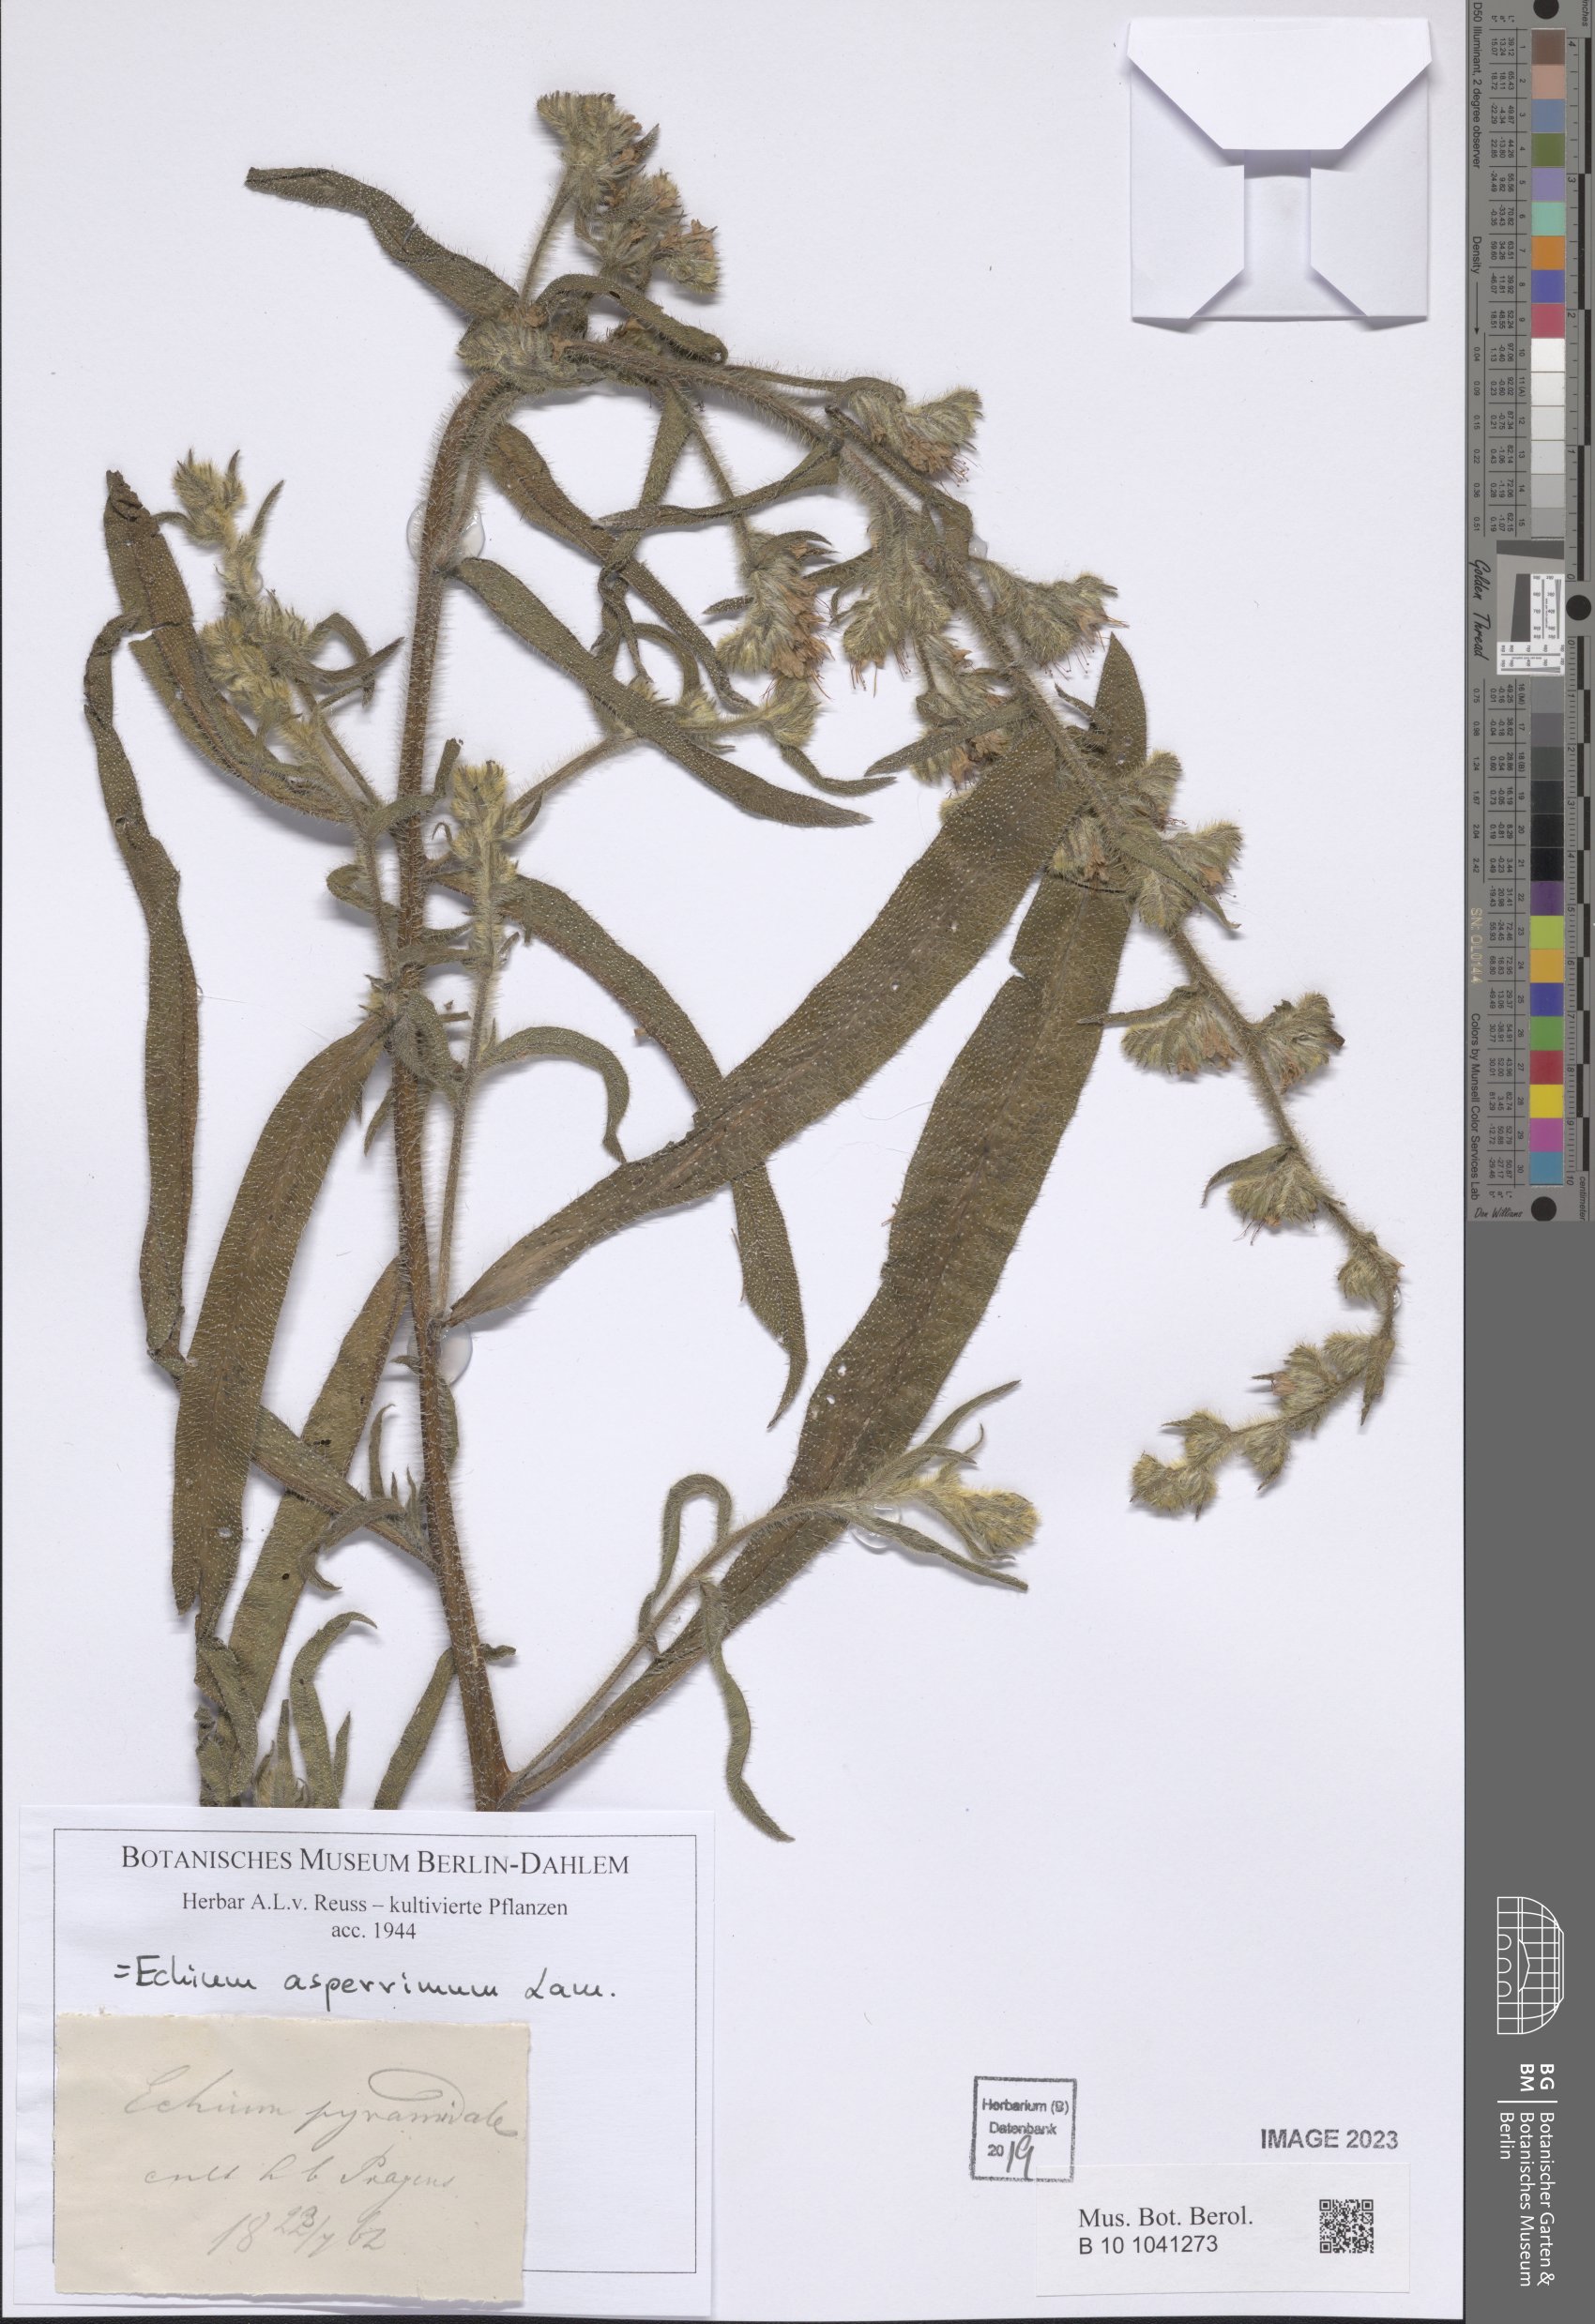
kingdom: Plantae
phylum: Tracheophyta
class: Magnoliopsida
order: Boraginales
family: Boraginaceae
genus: Echium
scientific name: Echium asperrimum
